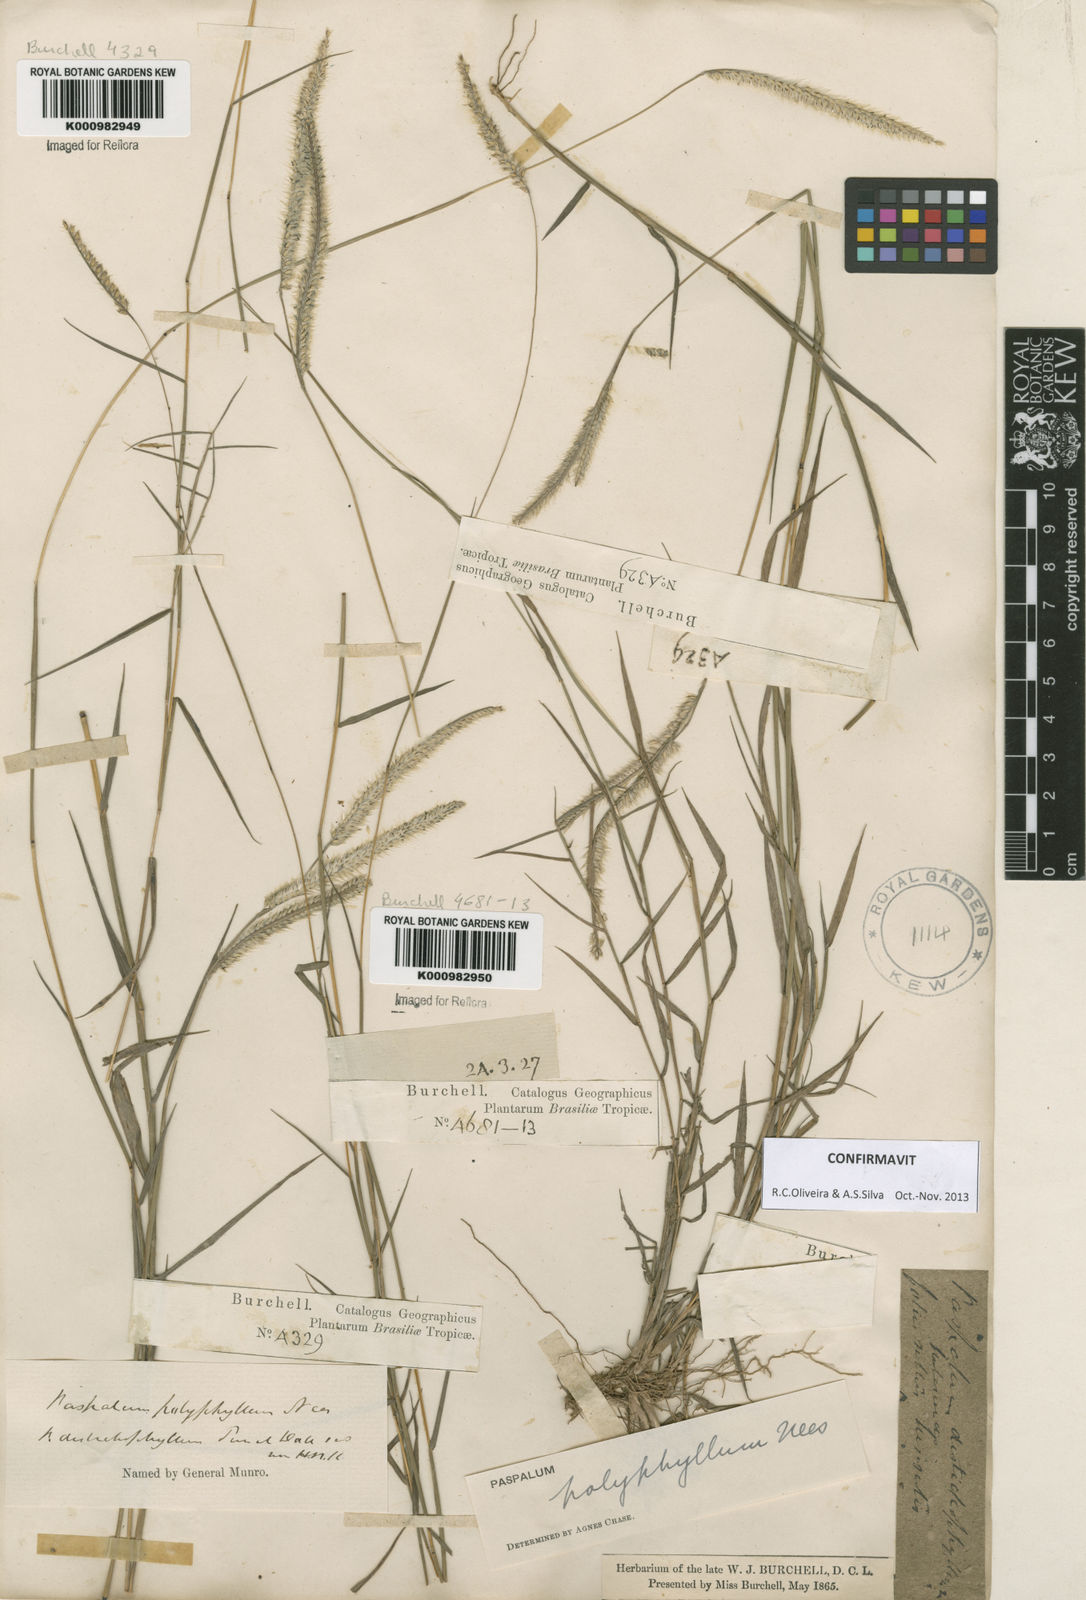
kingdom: Plantae
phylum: Tracheophyta
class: Liliopsida
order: Poales
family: Poaceae
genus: Paspalum
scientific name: Paspalum
